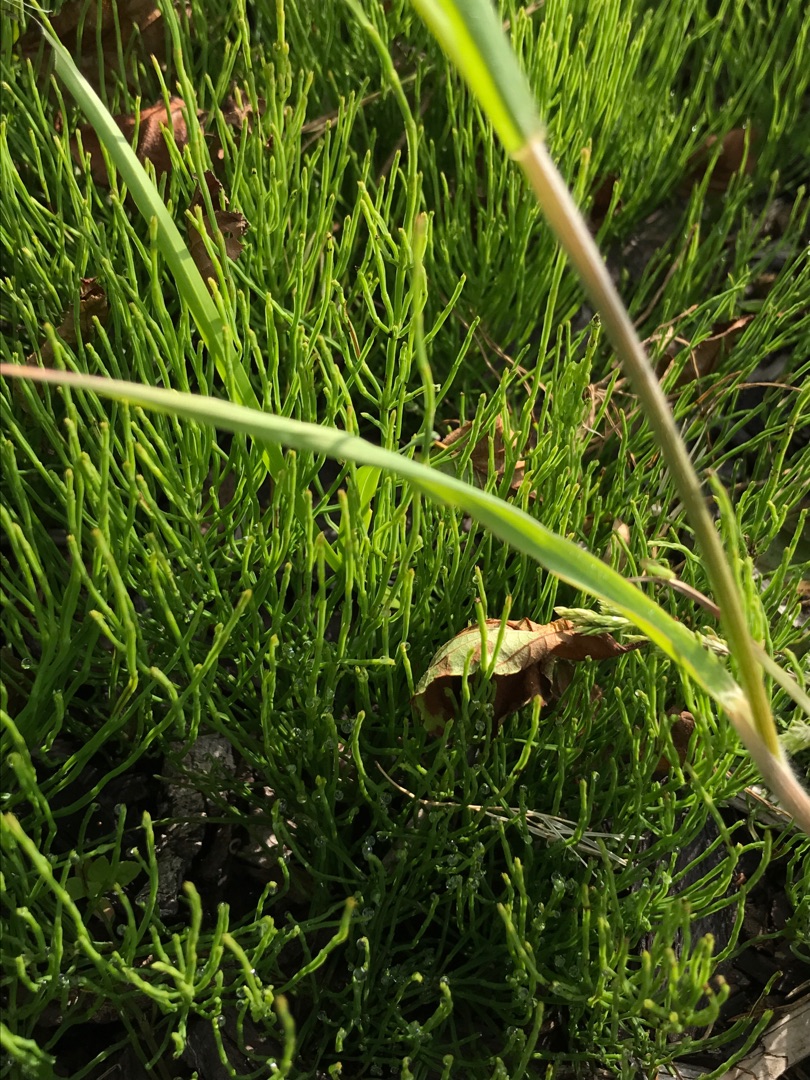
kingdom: Plantae
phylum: Tracheophyta
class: Liliopsida
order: Poales
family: Poaceae
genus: Bromus
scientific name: Bromus hordeaceus
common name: Blød hejre
